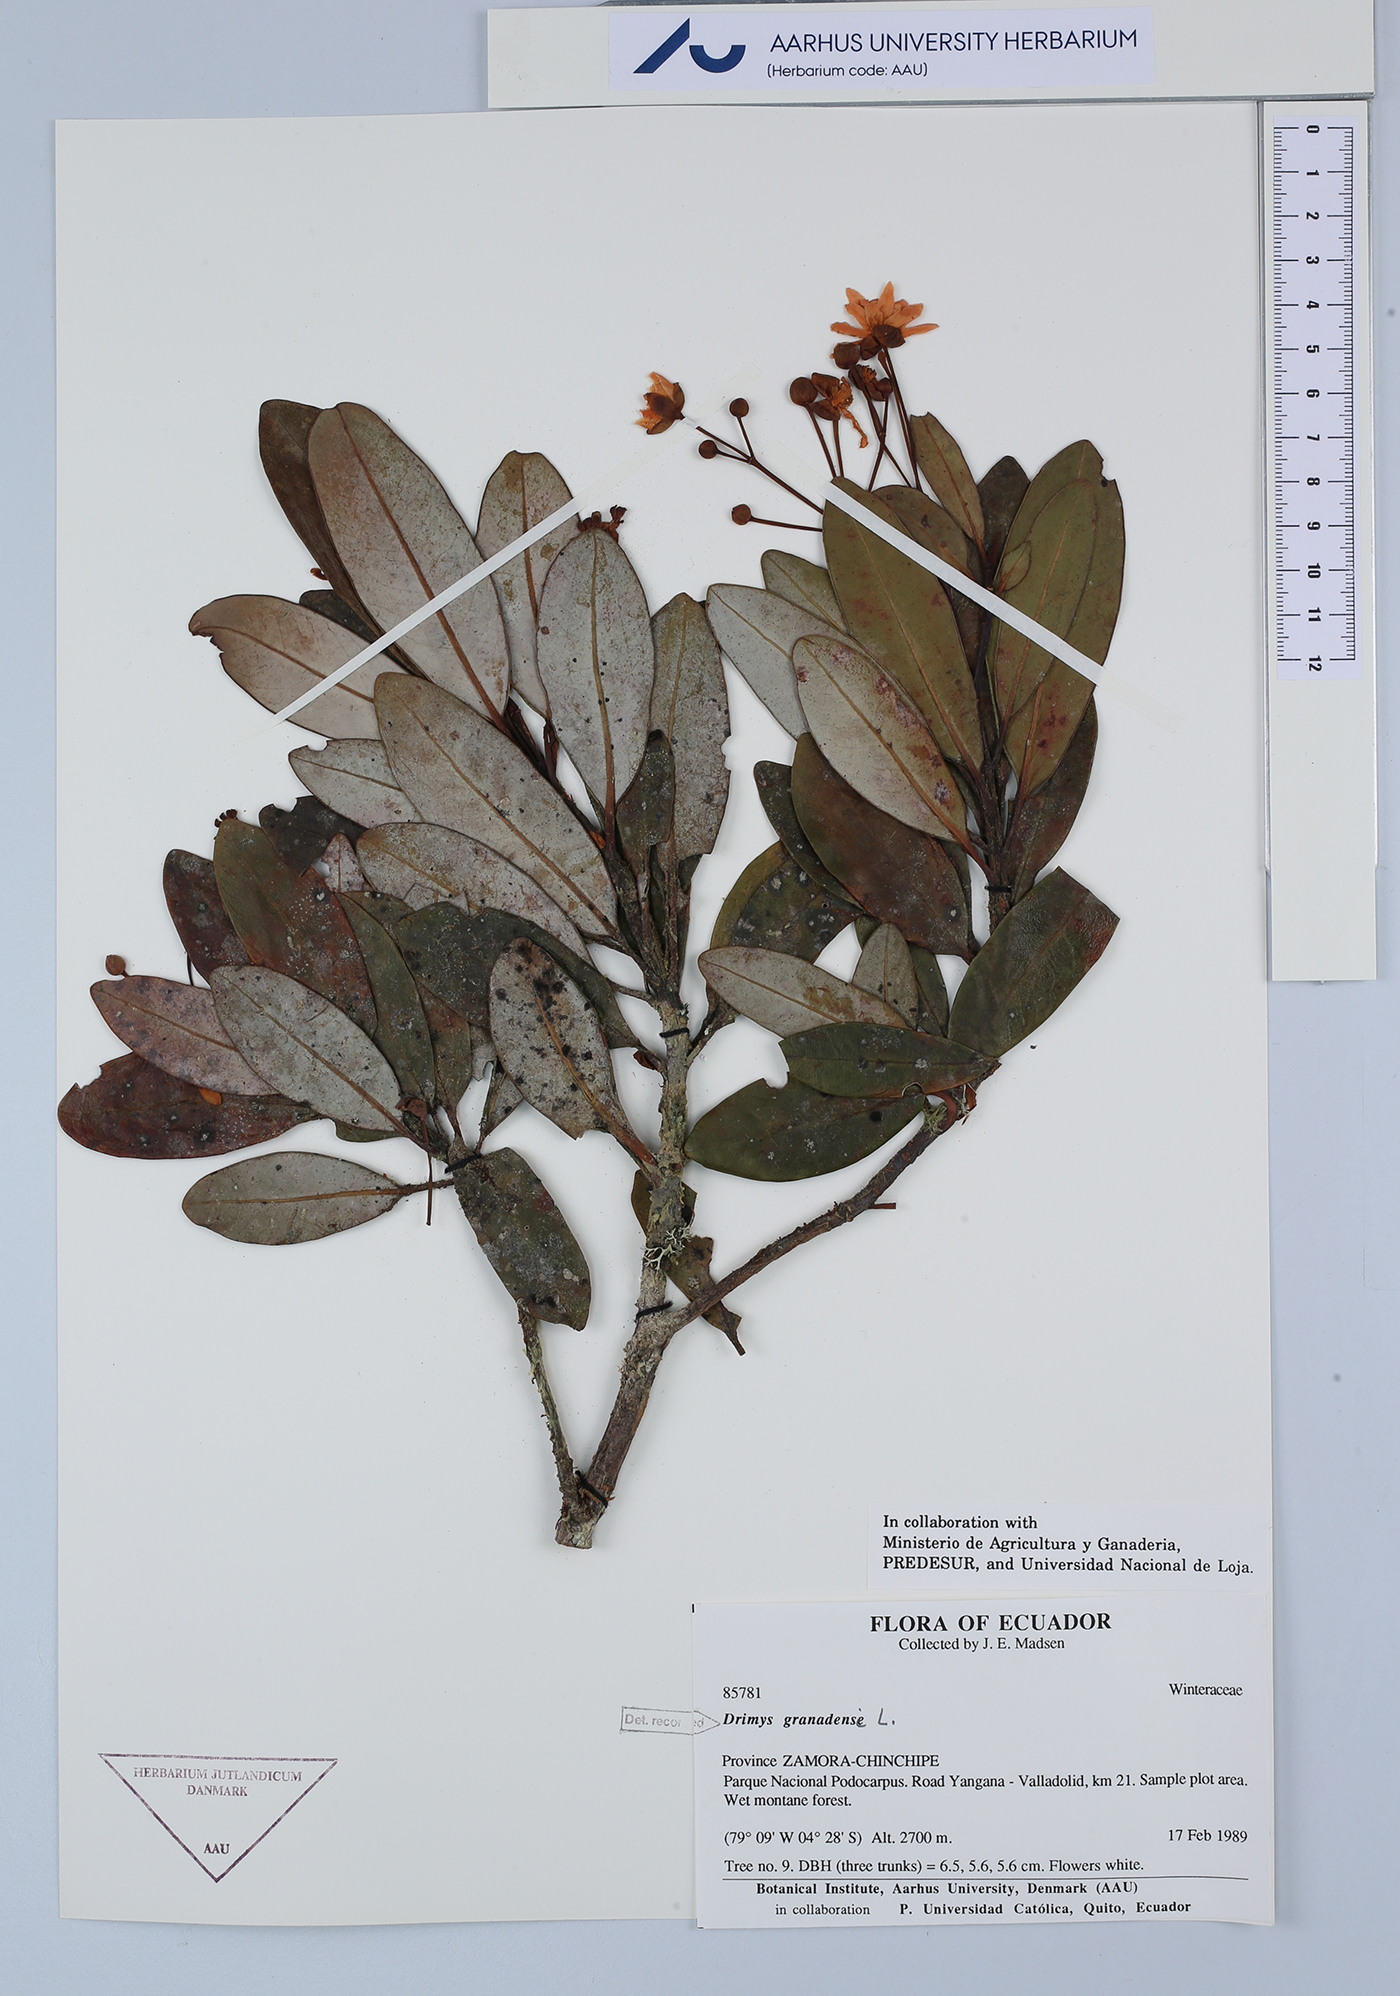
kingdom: Plantae
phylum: Tracheophyta
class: Magnoliopsida
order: Canellales
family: Winteraceae
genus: Drimys
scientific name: Drimys granadensis
